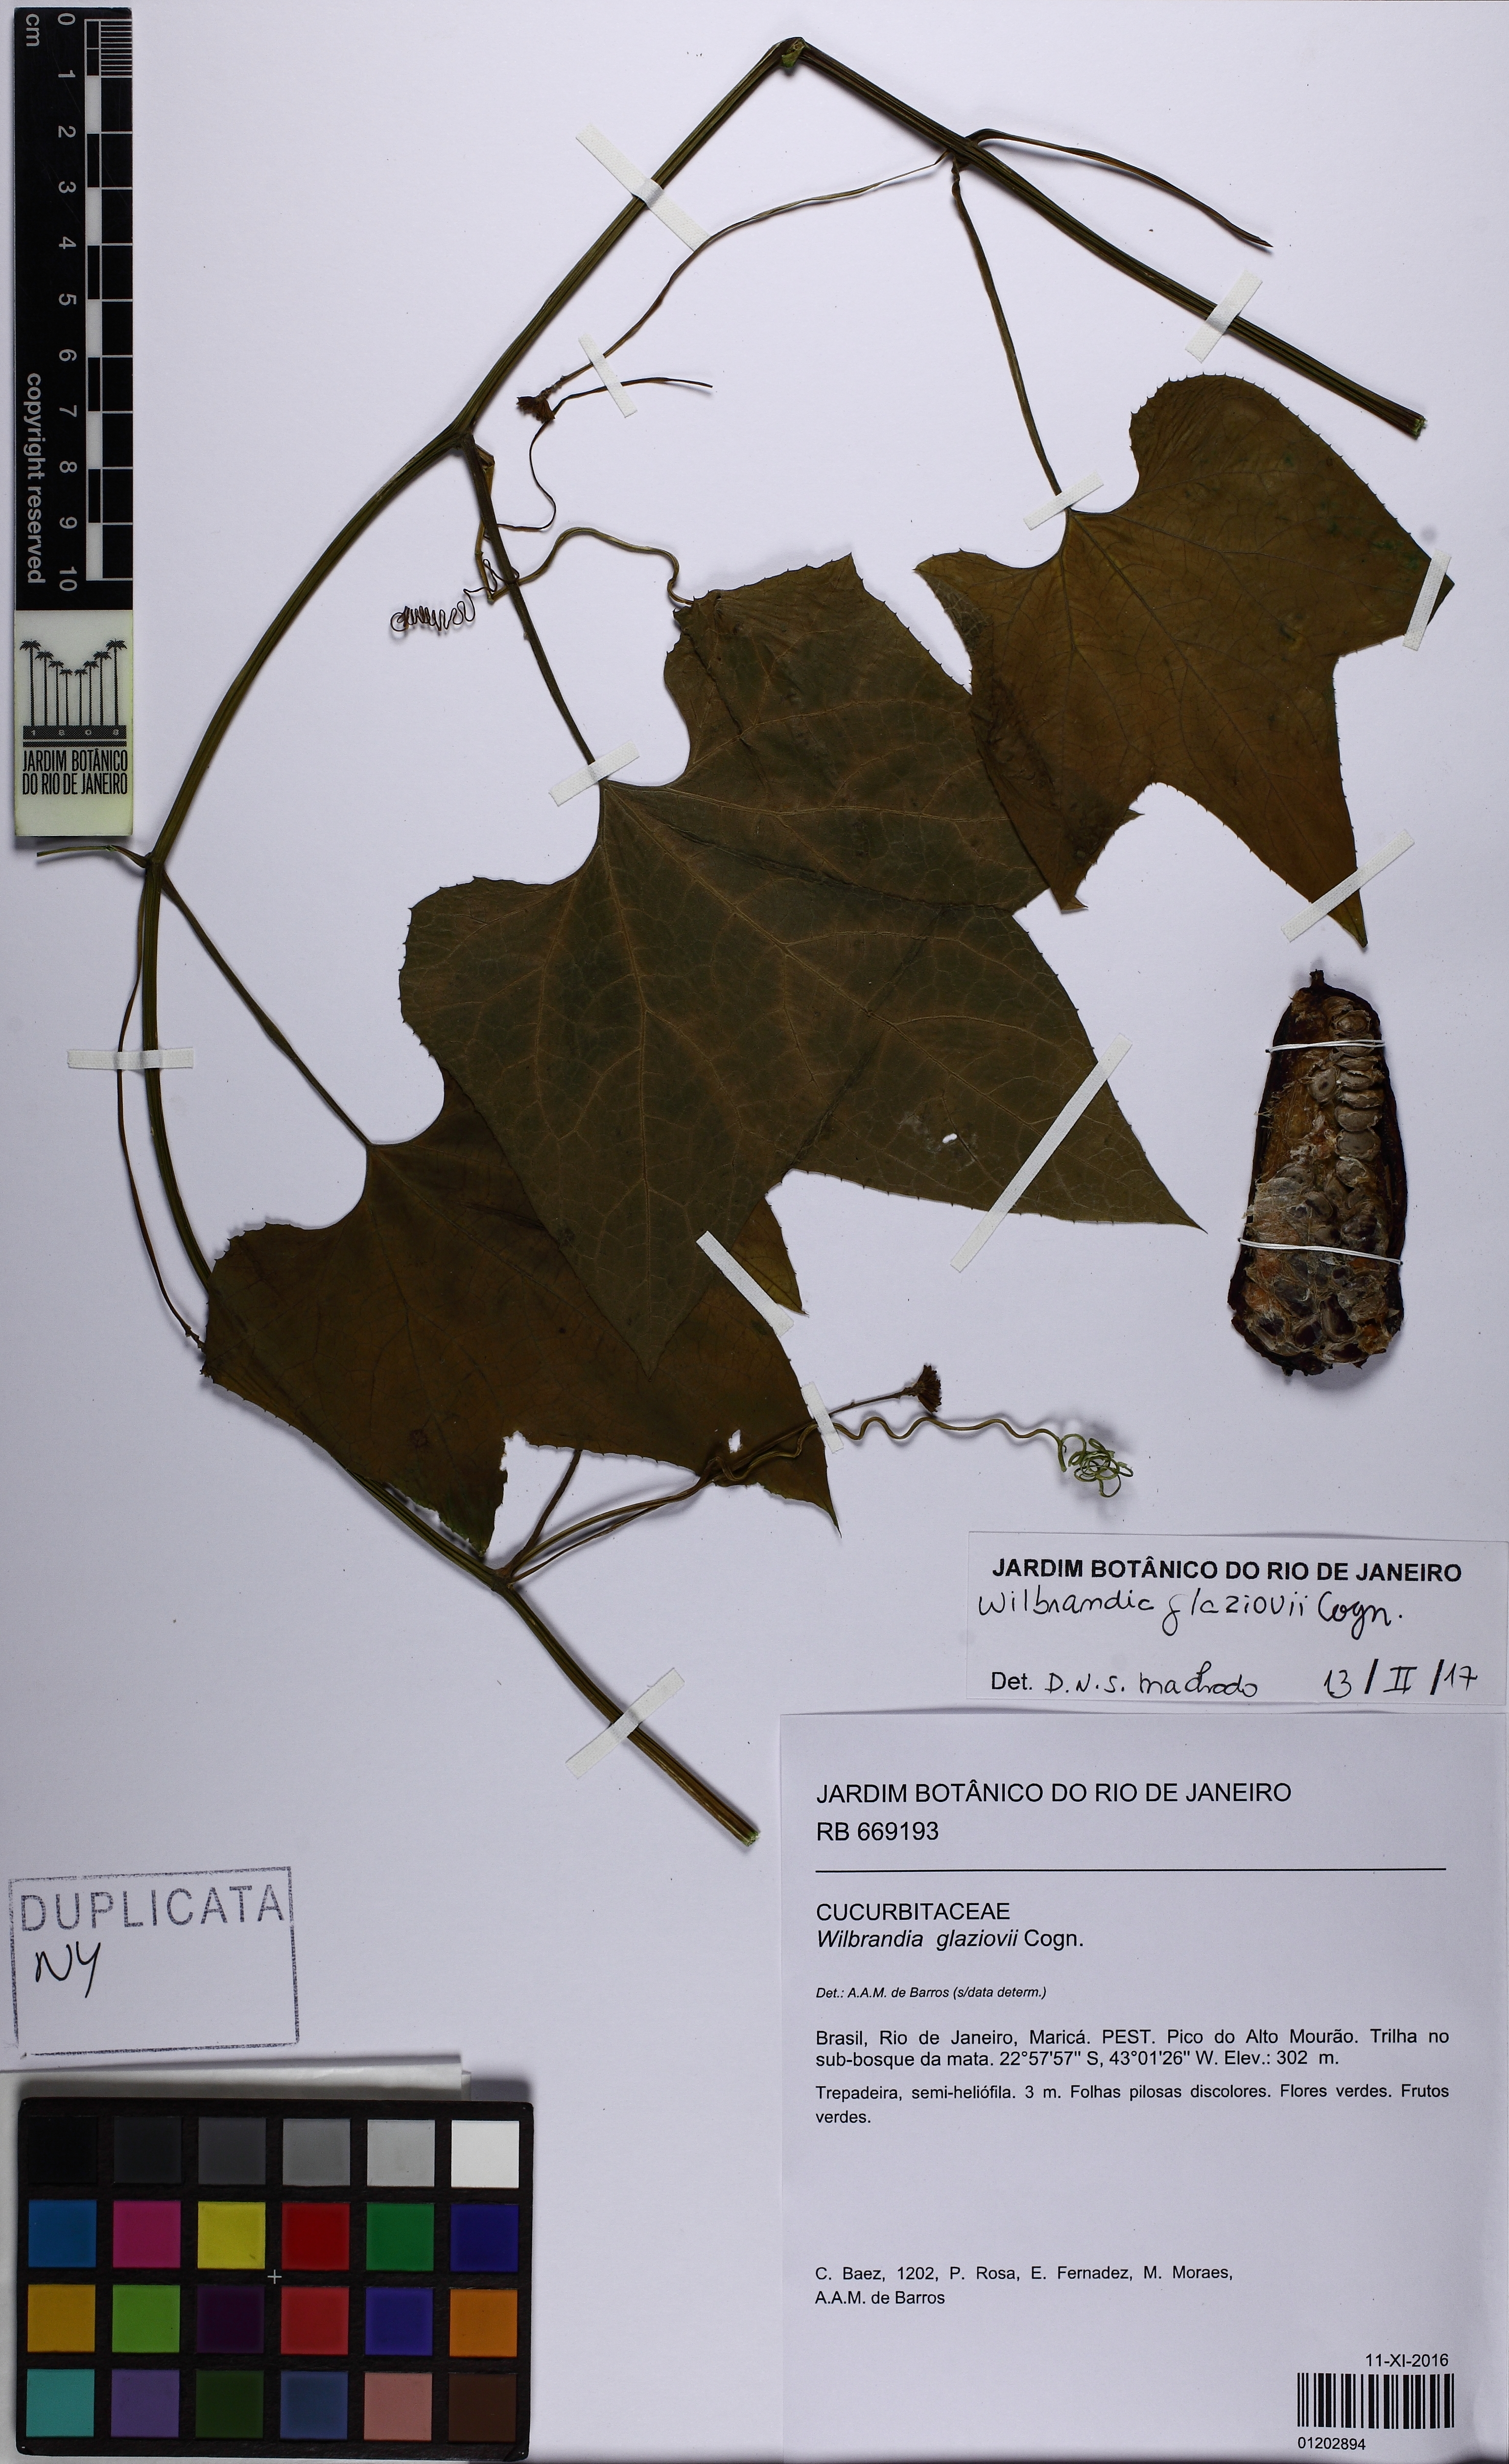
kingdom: Plantae
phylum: Tracheophyta
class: Magnoliopsida
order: Cucurbitales
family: Cucurbitaceae
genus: Wilbrandia
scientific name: Wilbrandia glaziovii
